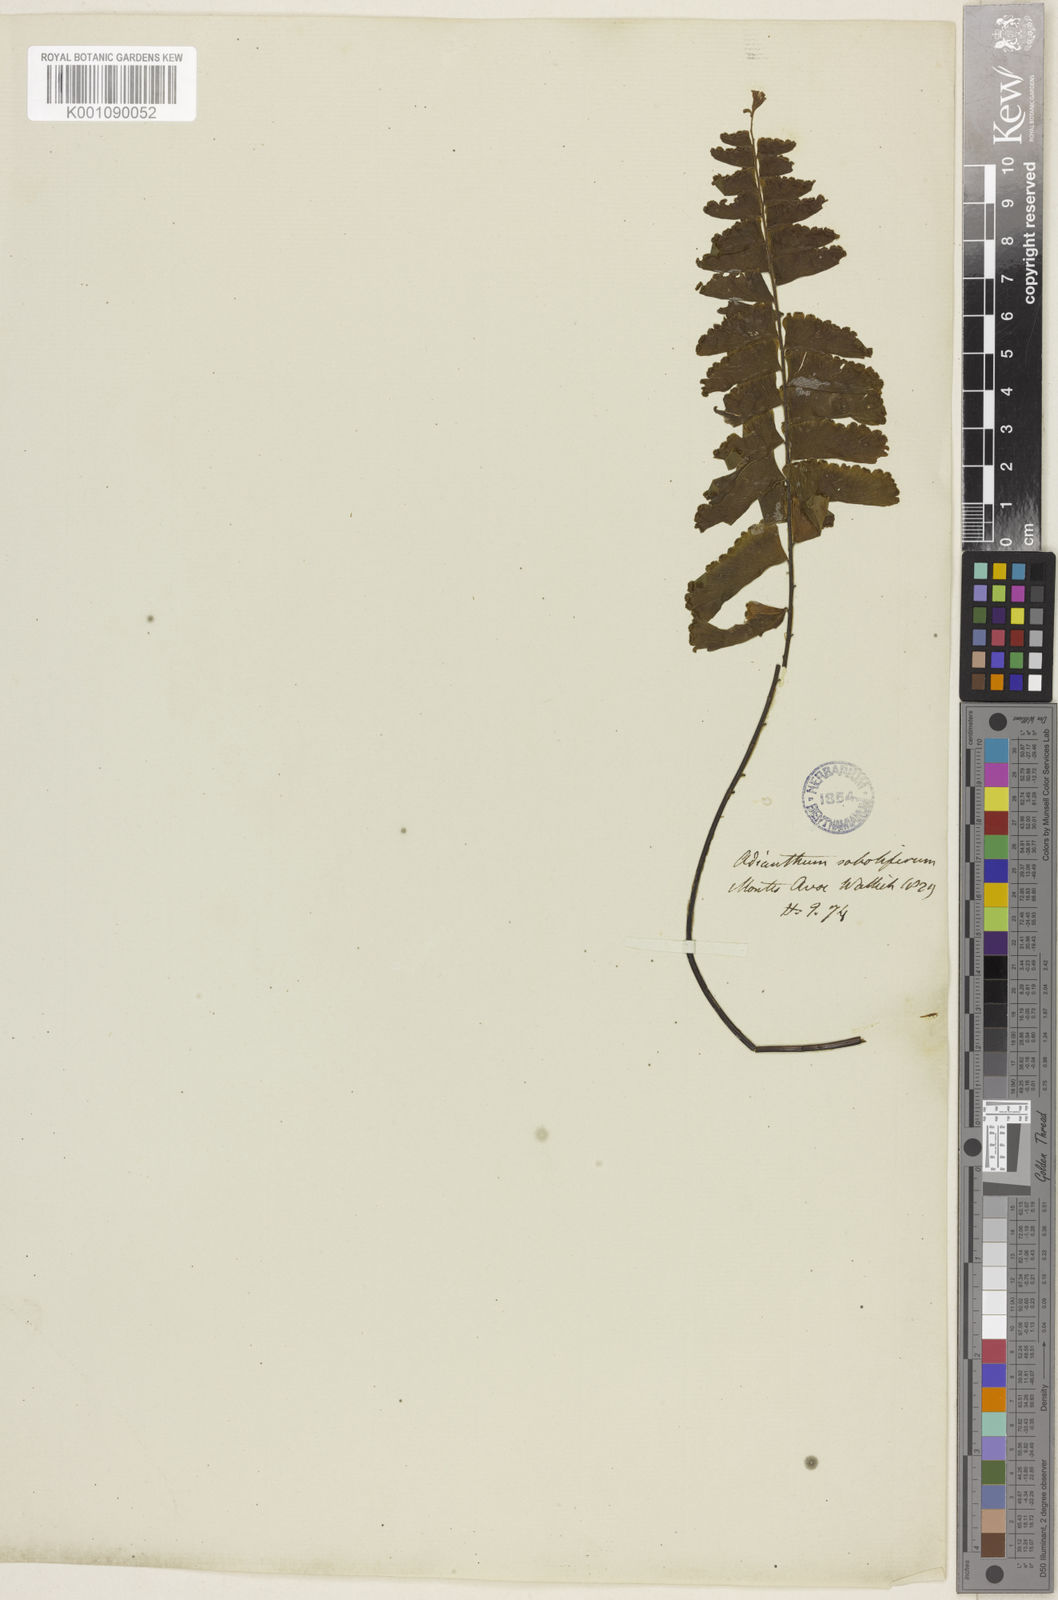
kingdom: Plantae
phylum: Tracheophyta
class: Polypodiopsida
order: Polypodiales
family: Pteridaceae
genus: Adiantum
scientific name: Adiantum soboliferum
